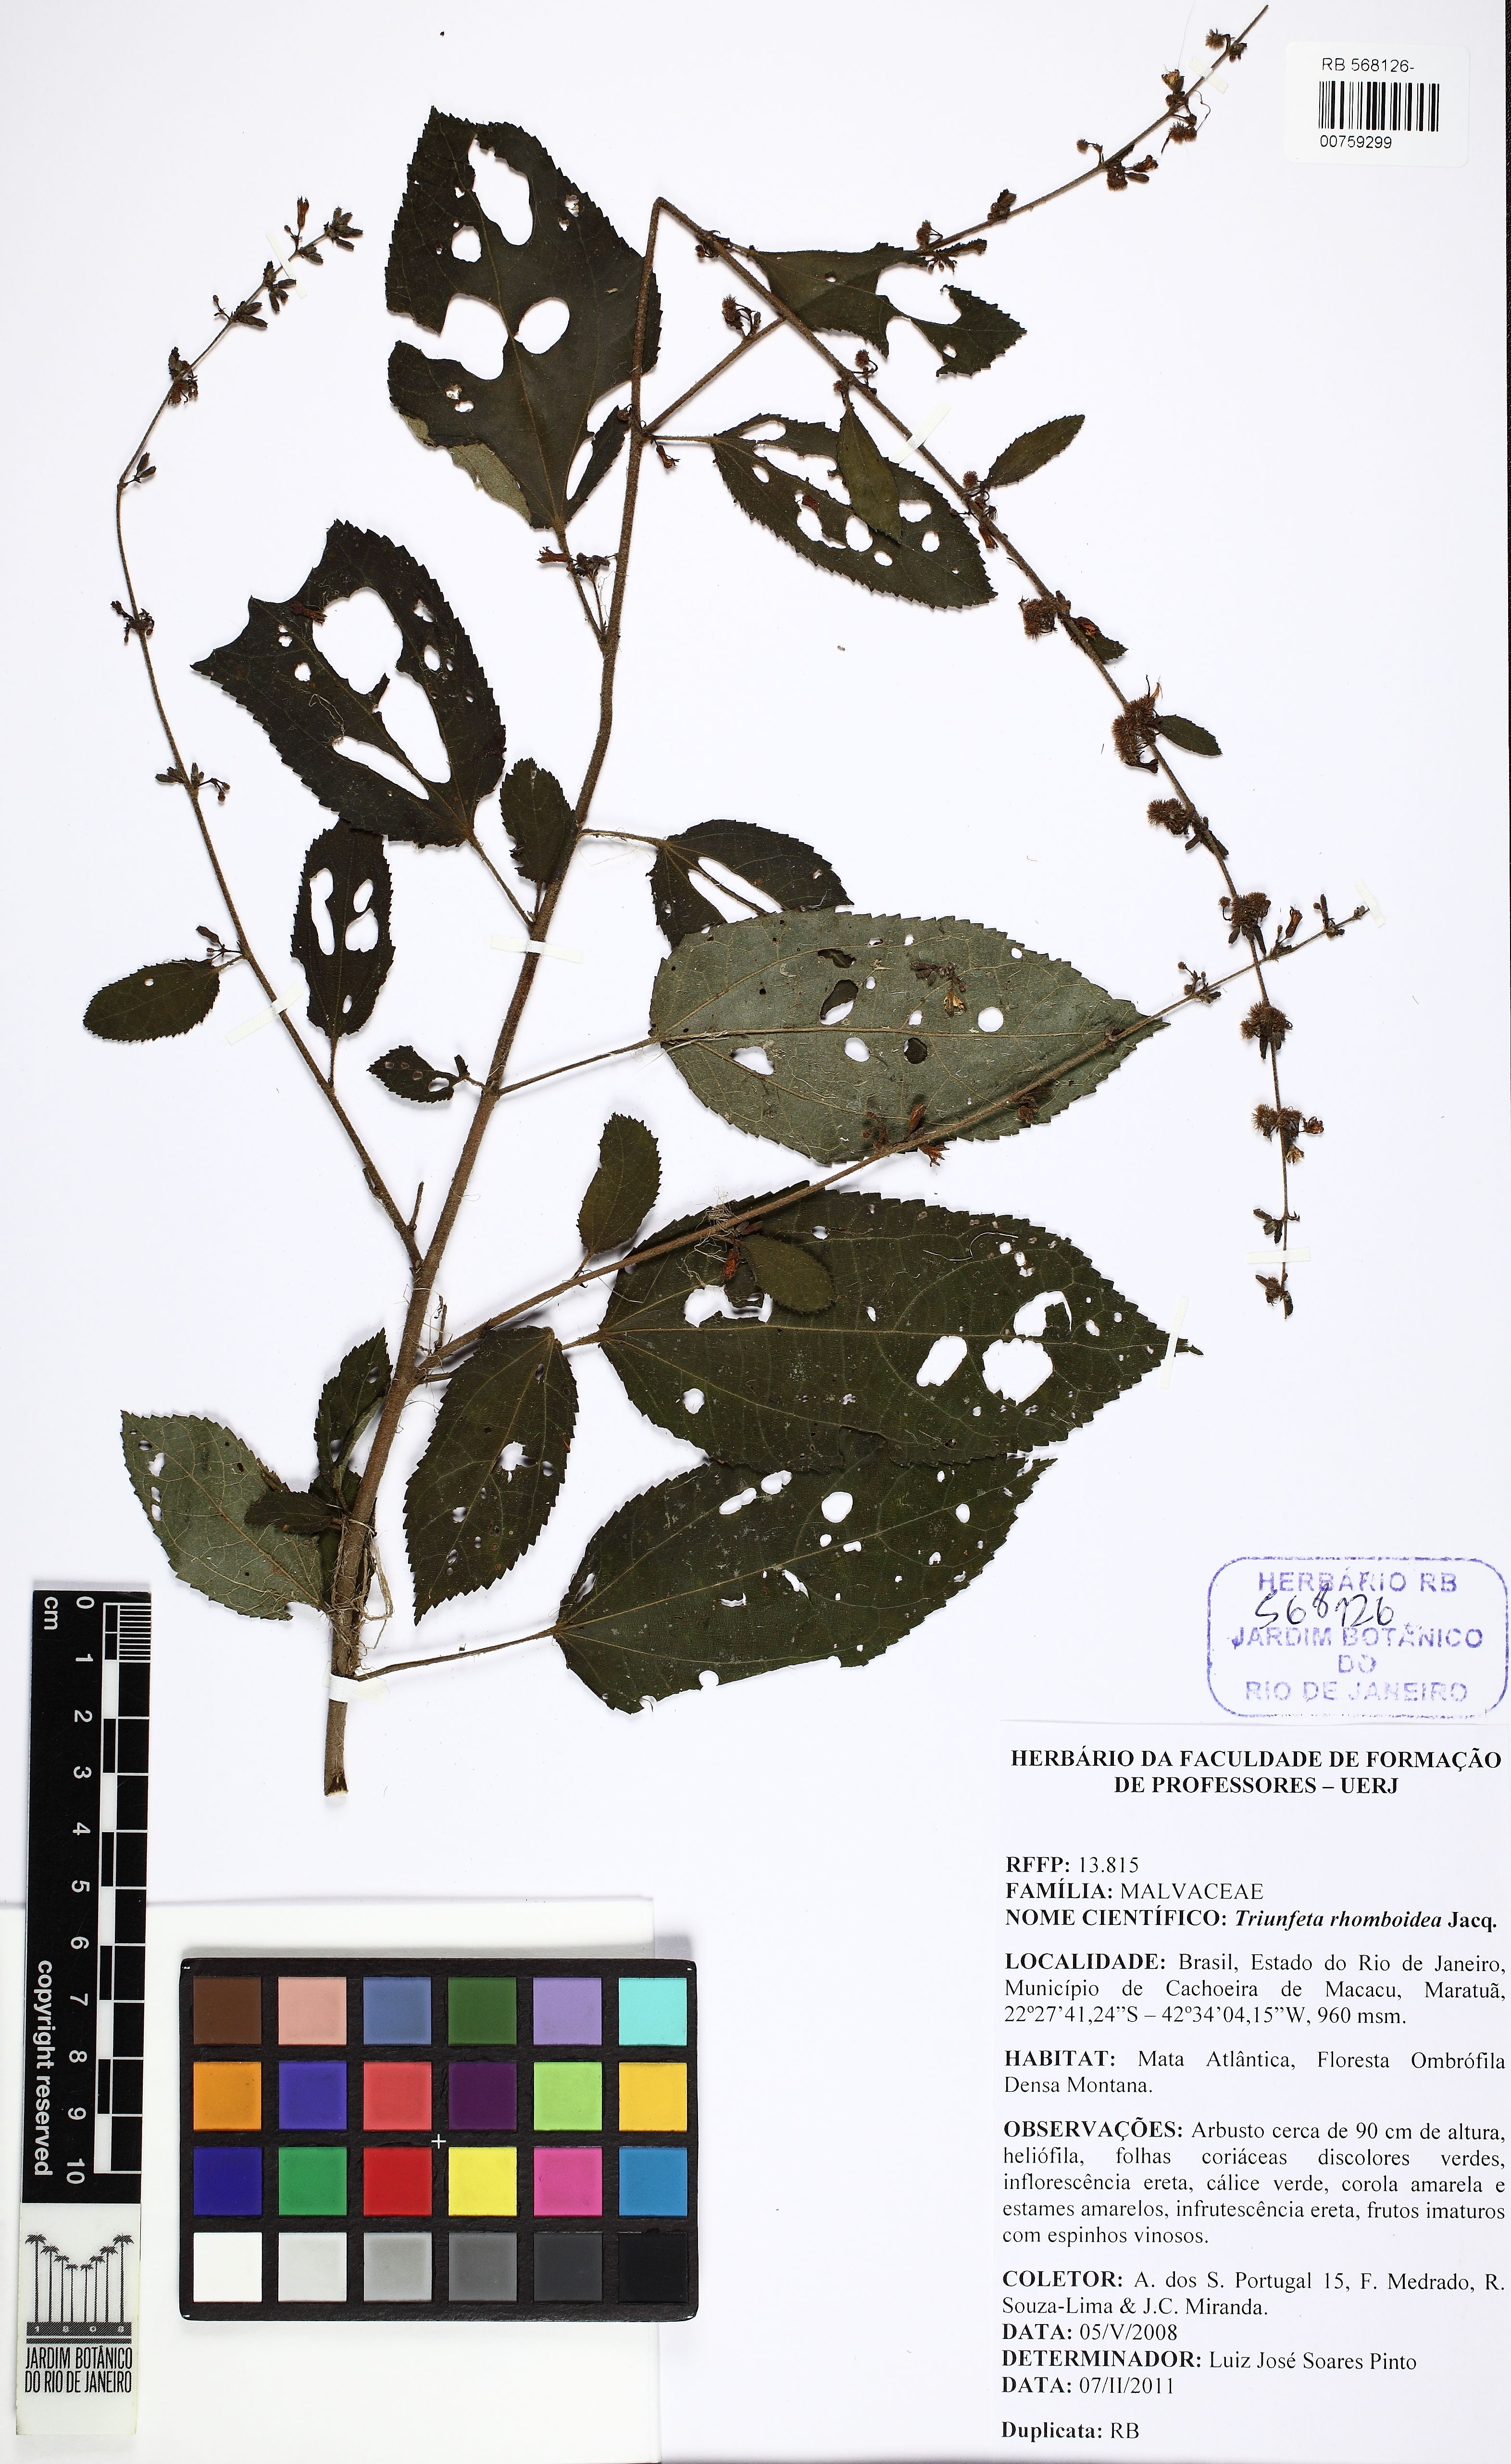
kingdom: Plantae
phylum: Tracheophyta
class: Magnoliopsida
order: Malvales
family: Malvaceae
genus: Triumfetta
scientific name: Triumfetta rhomboidea
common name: Diamond burbark
